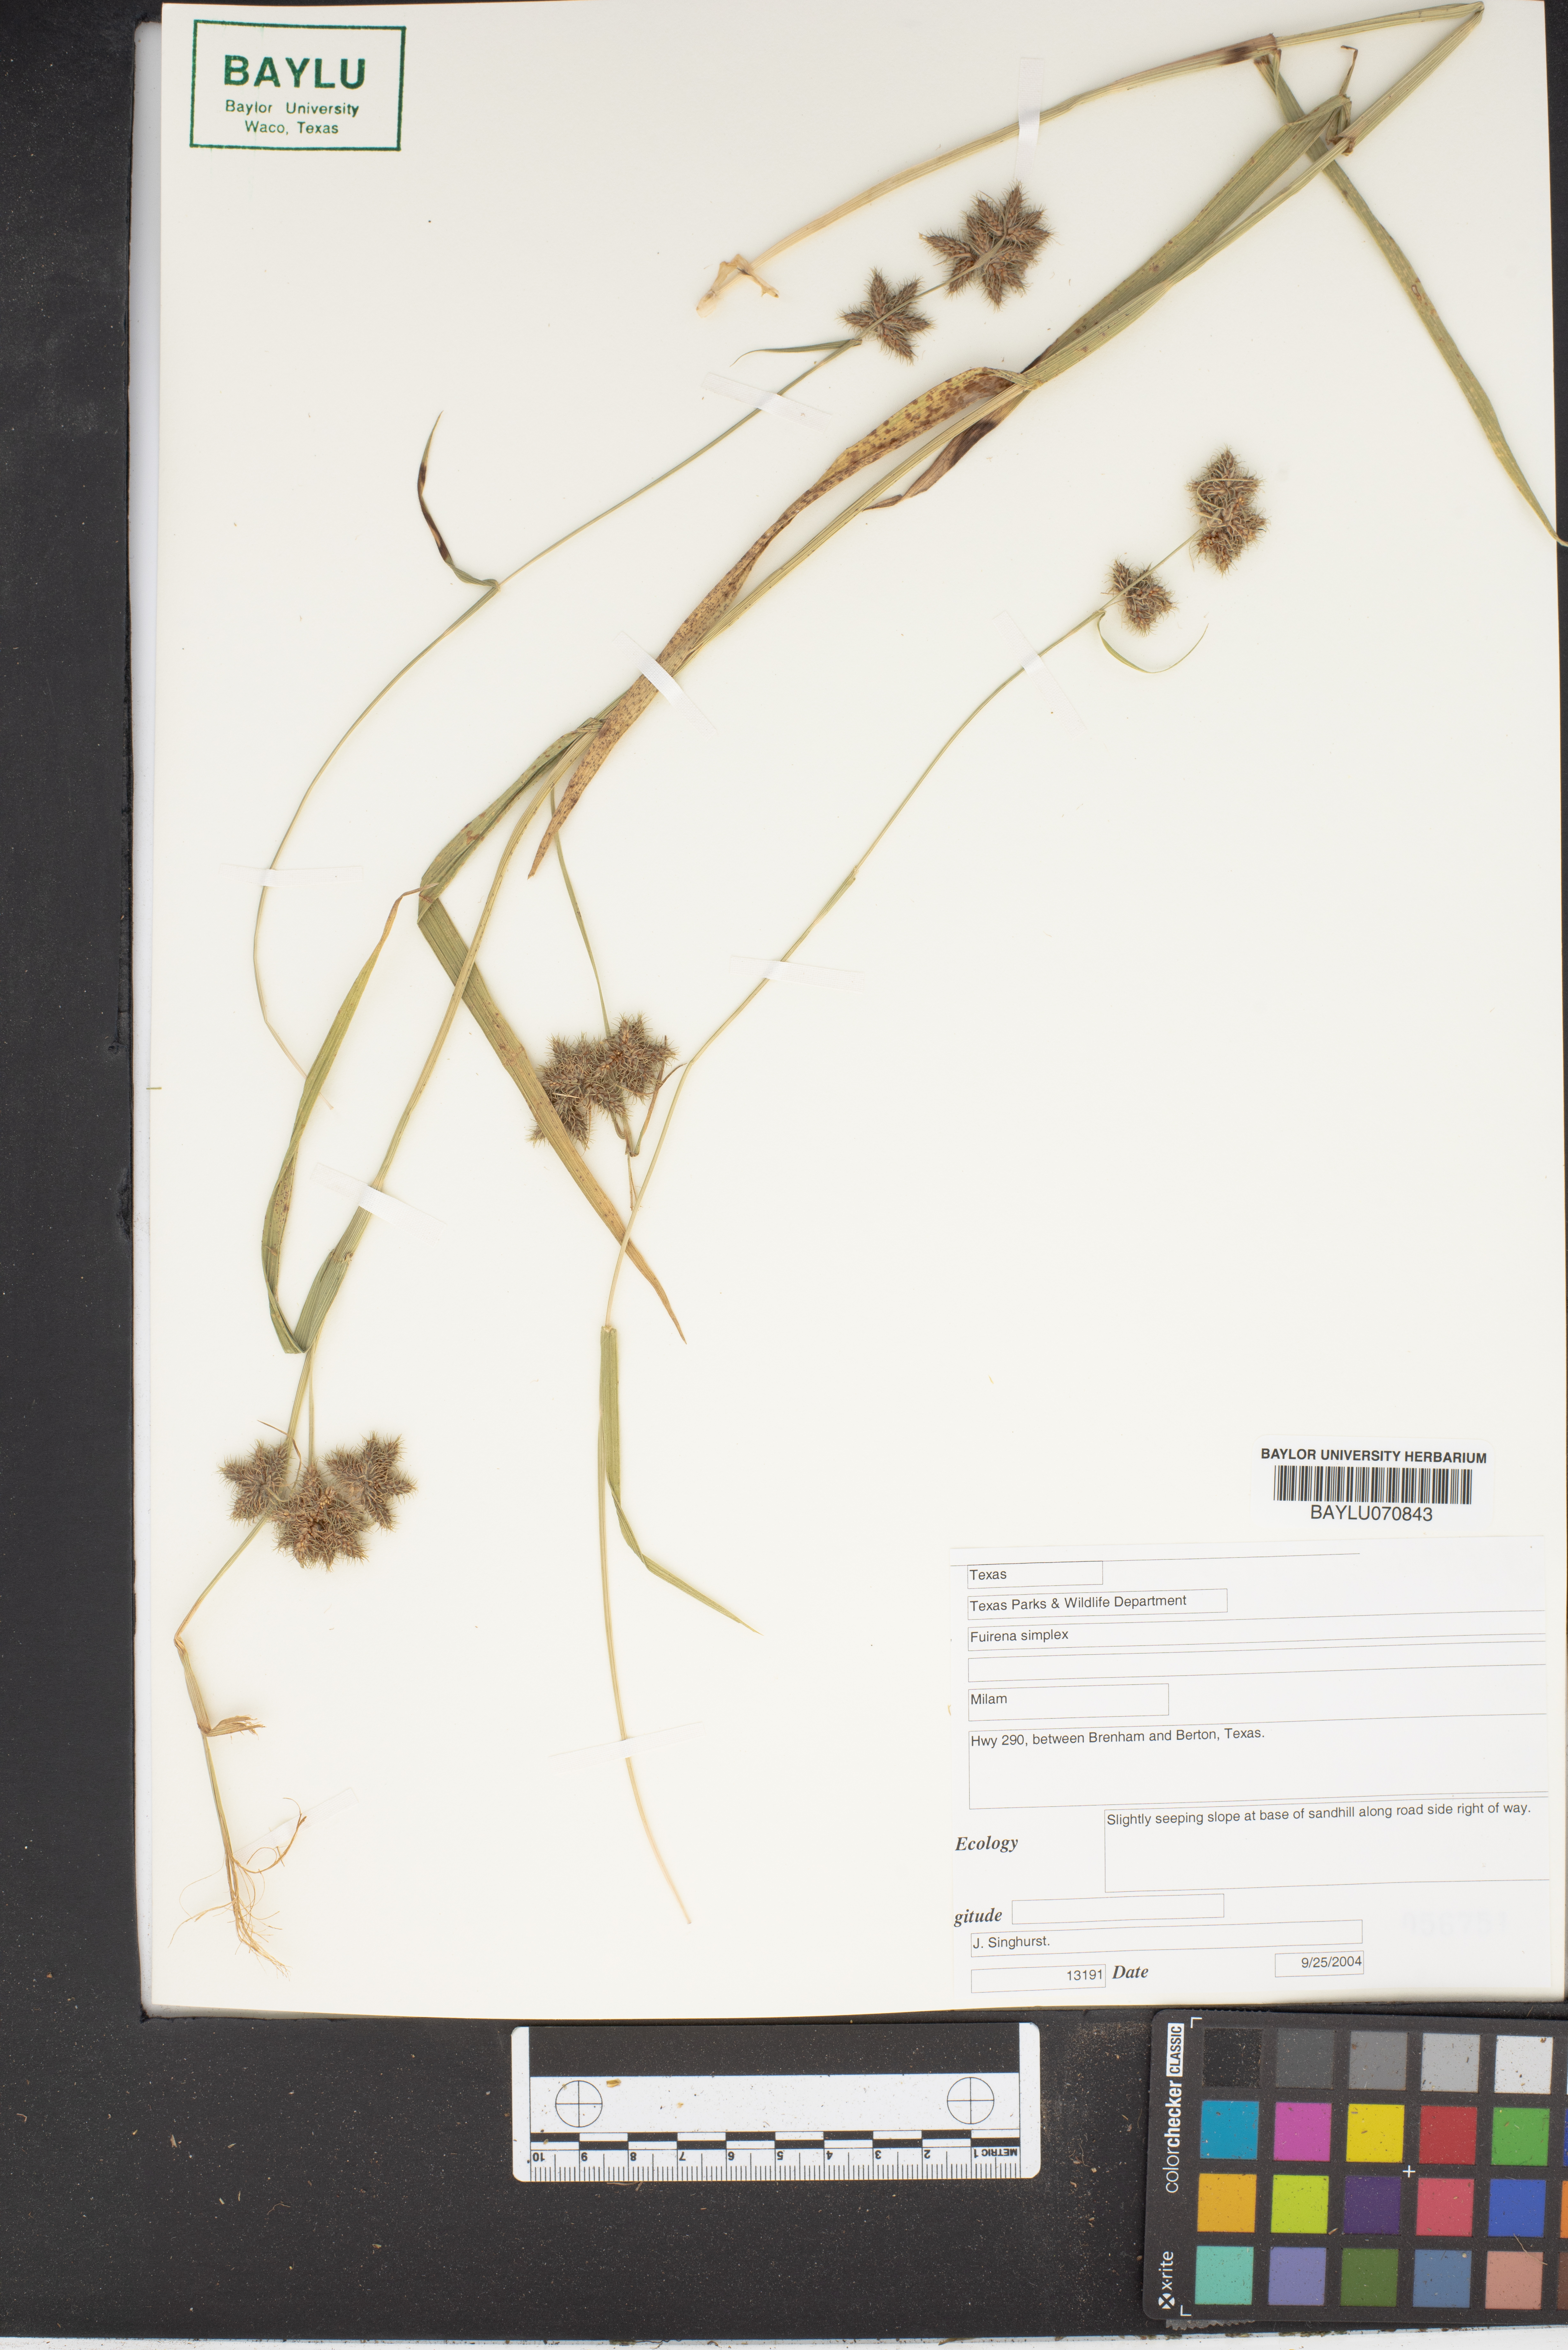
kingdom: Plantae
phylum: Tracheophyta
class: Liliopsida
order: Poales
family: Cyperaceae
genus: Fuirena
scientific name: Fuirena simplex
